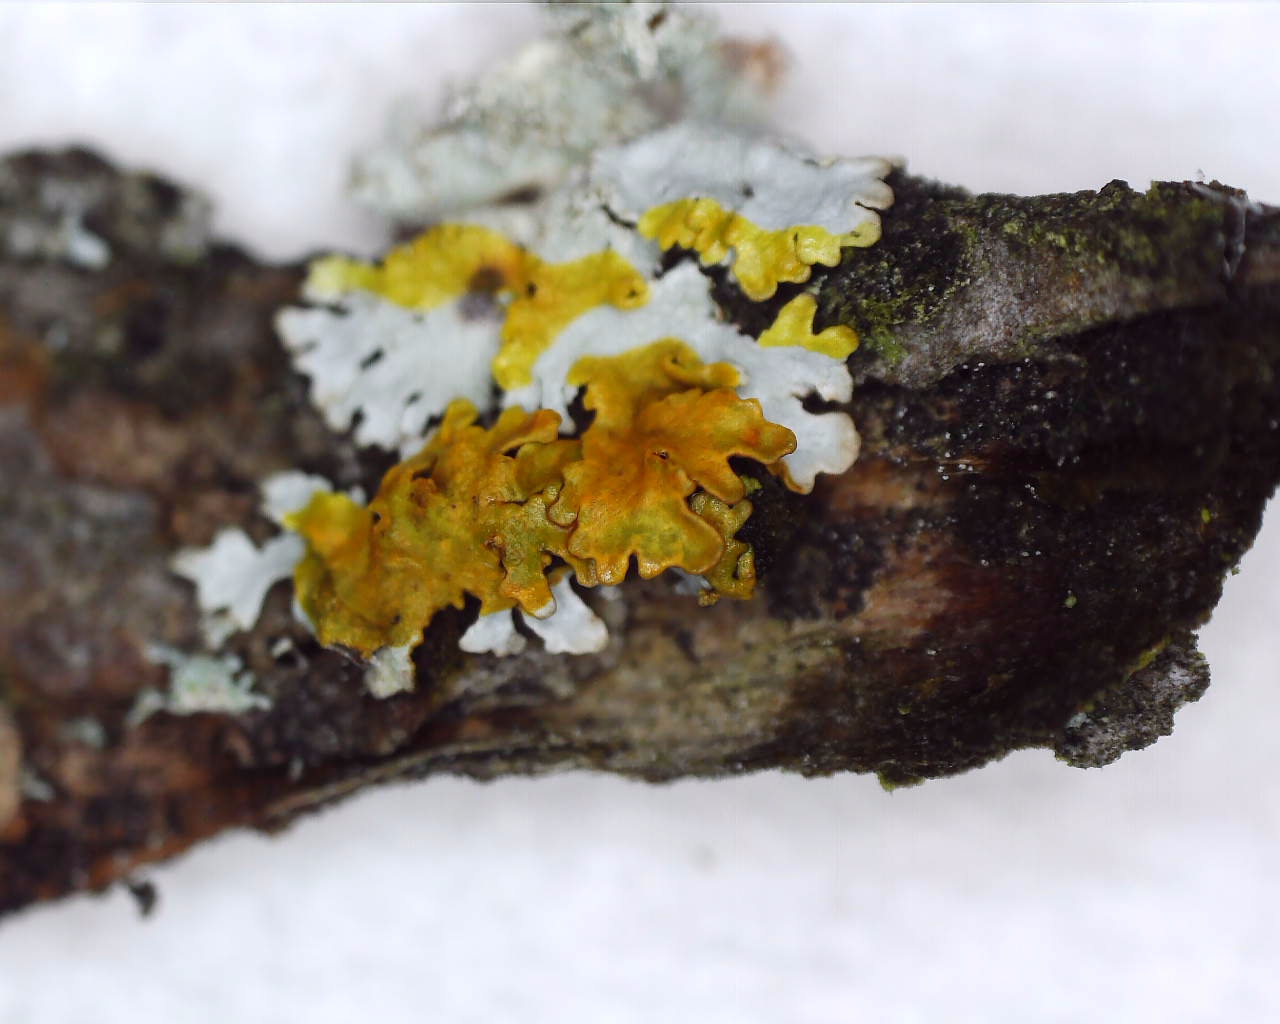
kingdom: Fungi
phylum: Ascomycota
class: Lecanoromycetes
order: Lecanorales
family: Parmeliaceae
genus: Imshaugia
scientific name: Imshaugia aleurites
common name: kliddet stolpelav
